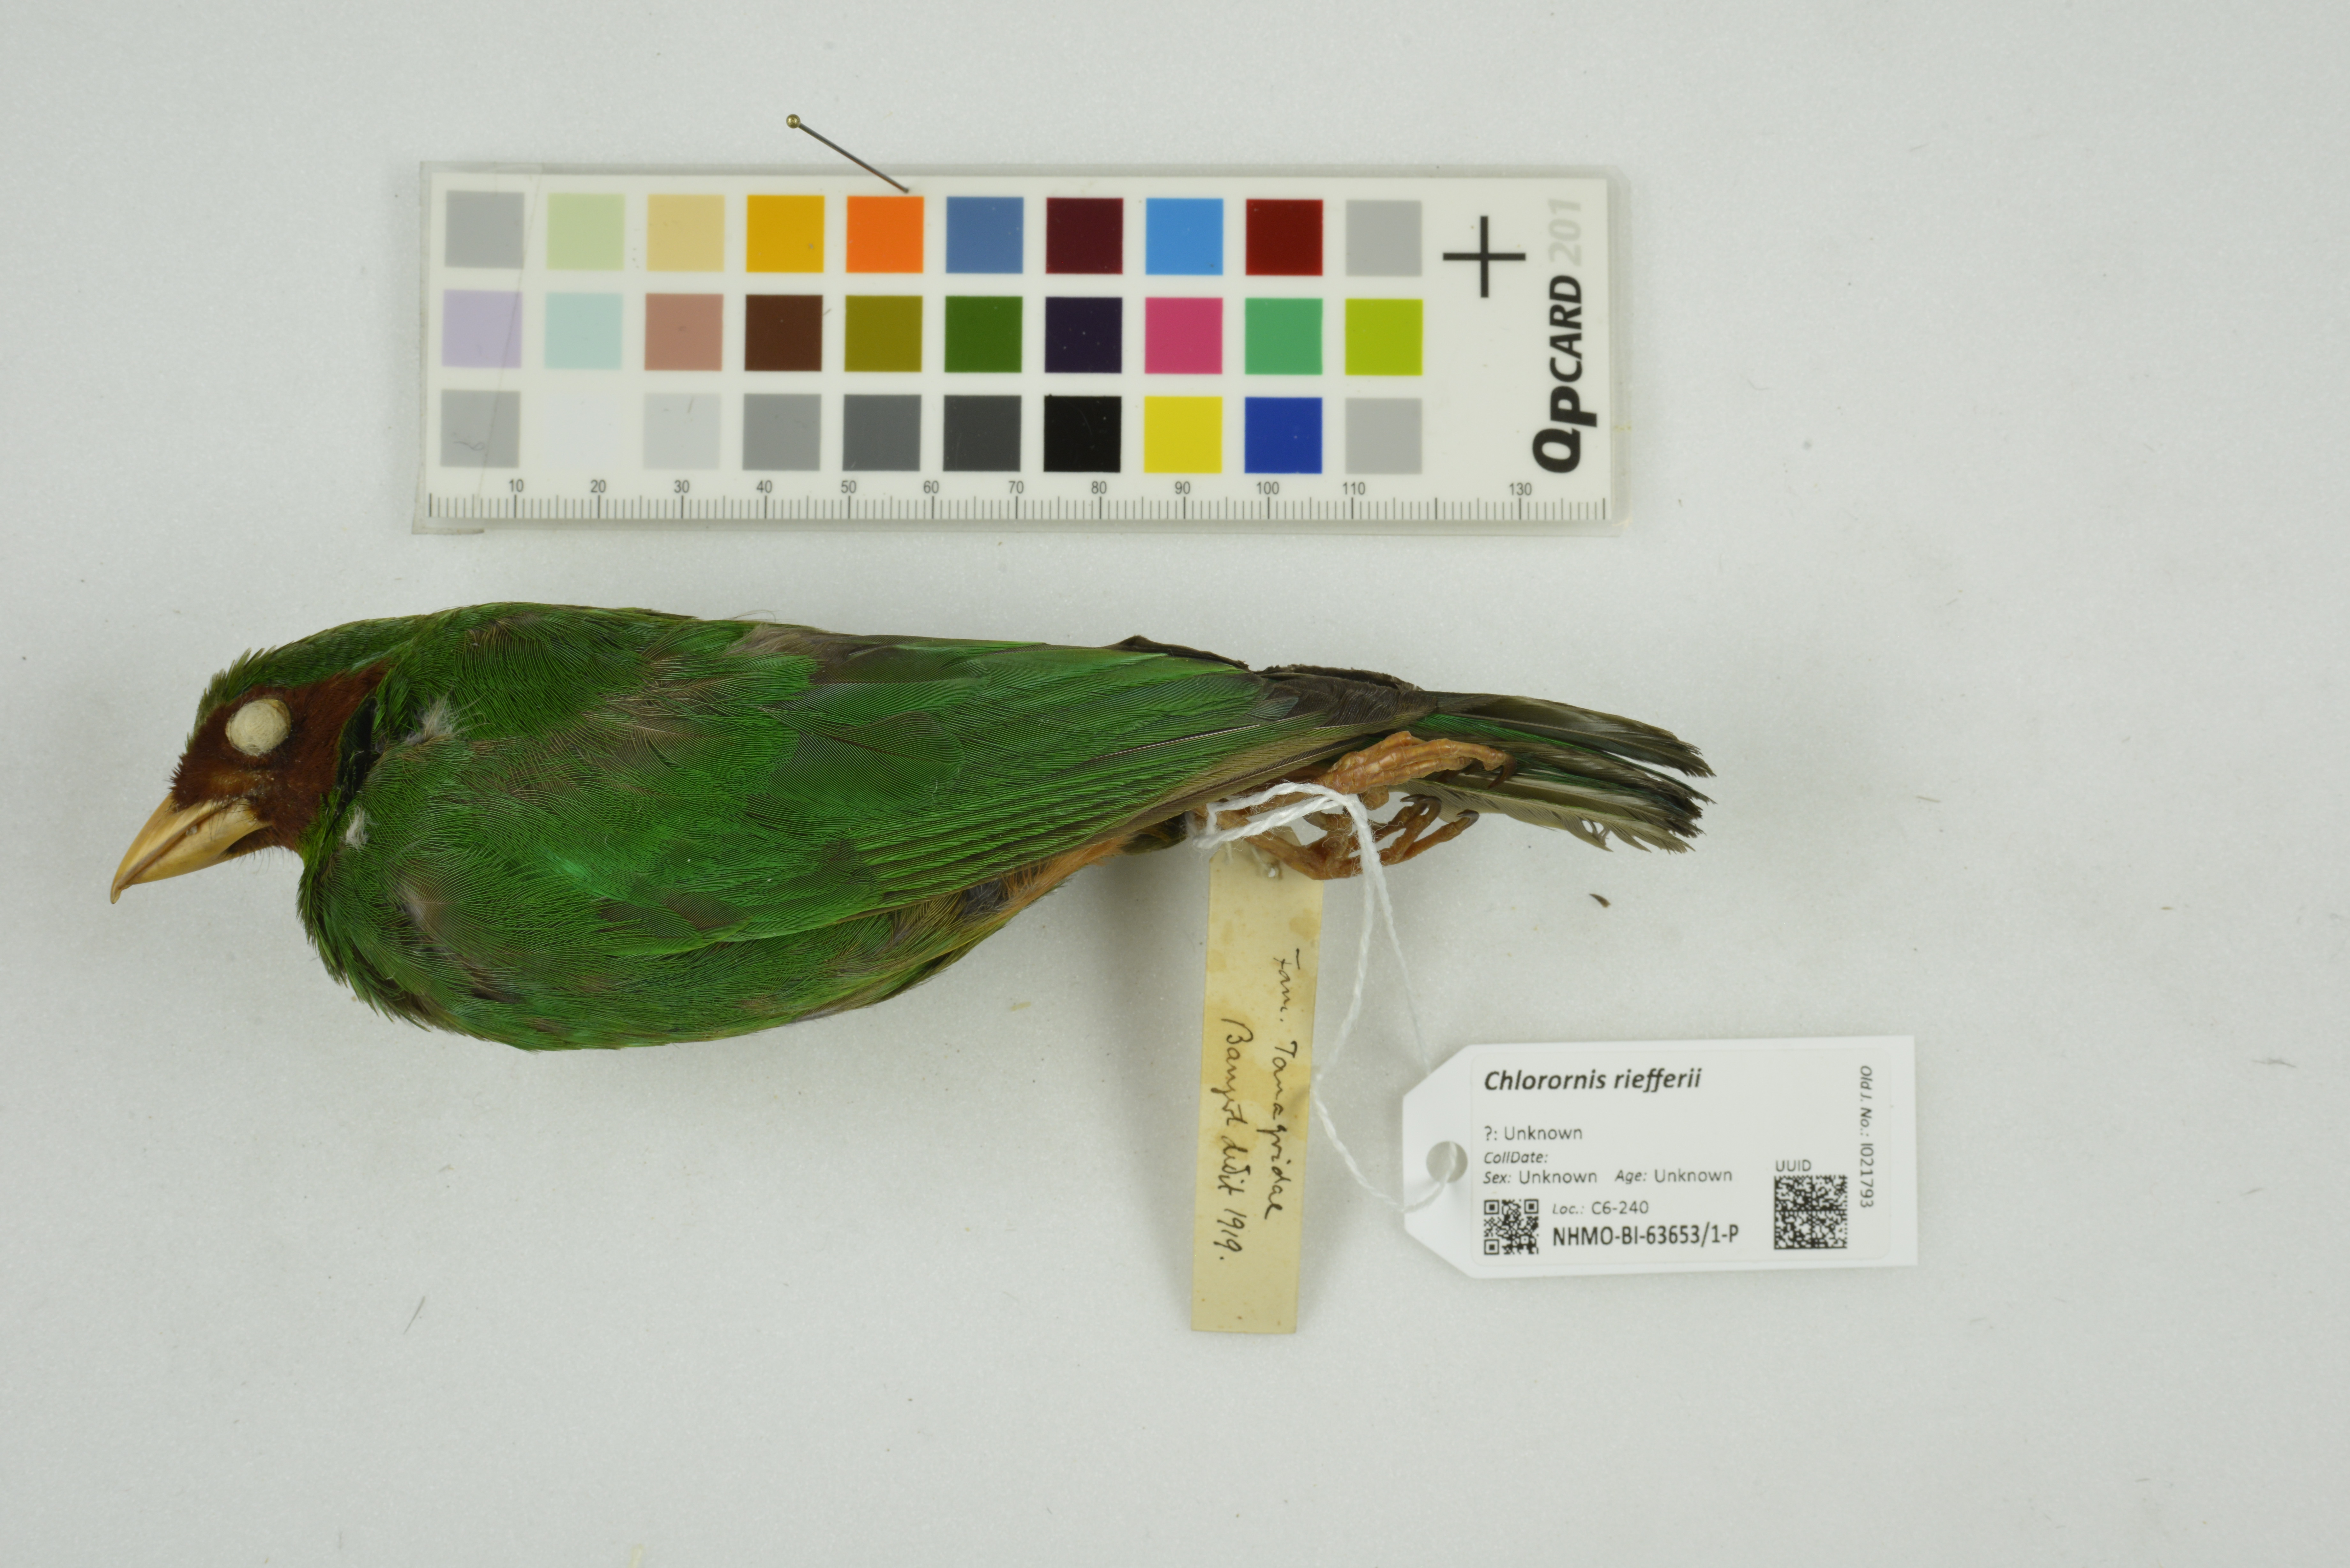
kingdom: Animalia
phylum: Chordata
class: Aves
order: Passeriformes
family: Thraupidae
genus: Chlorornis
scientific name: Chlorornis riefferii
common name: Grass-green tanager
